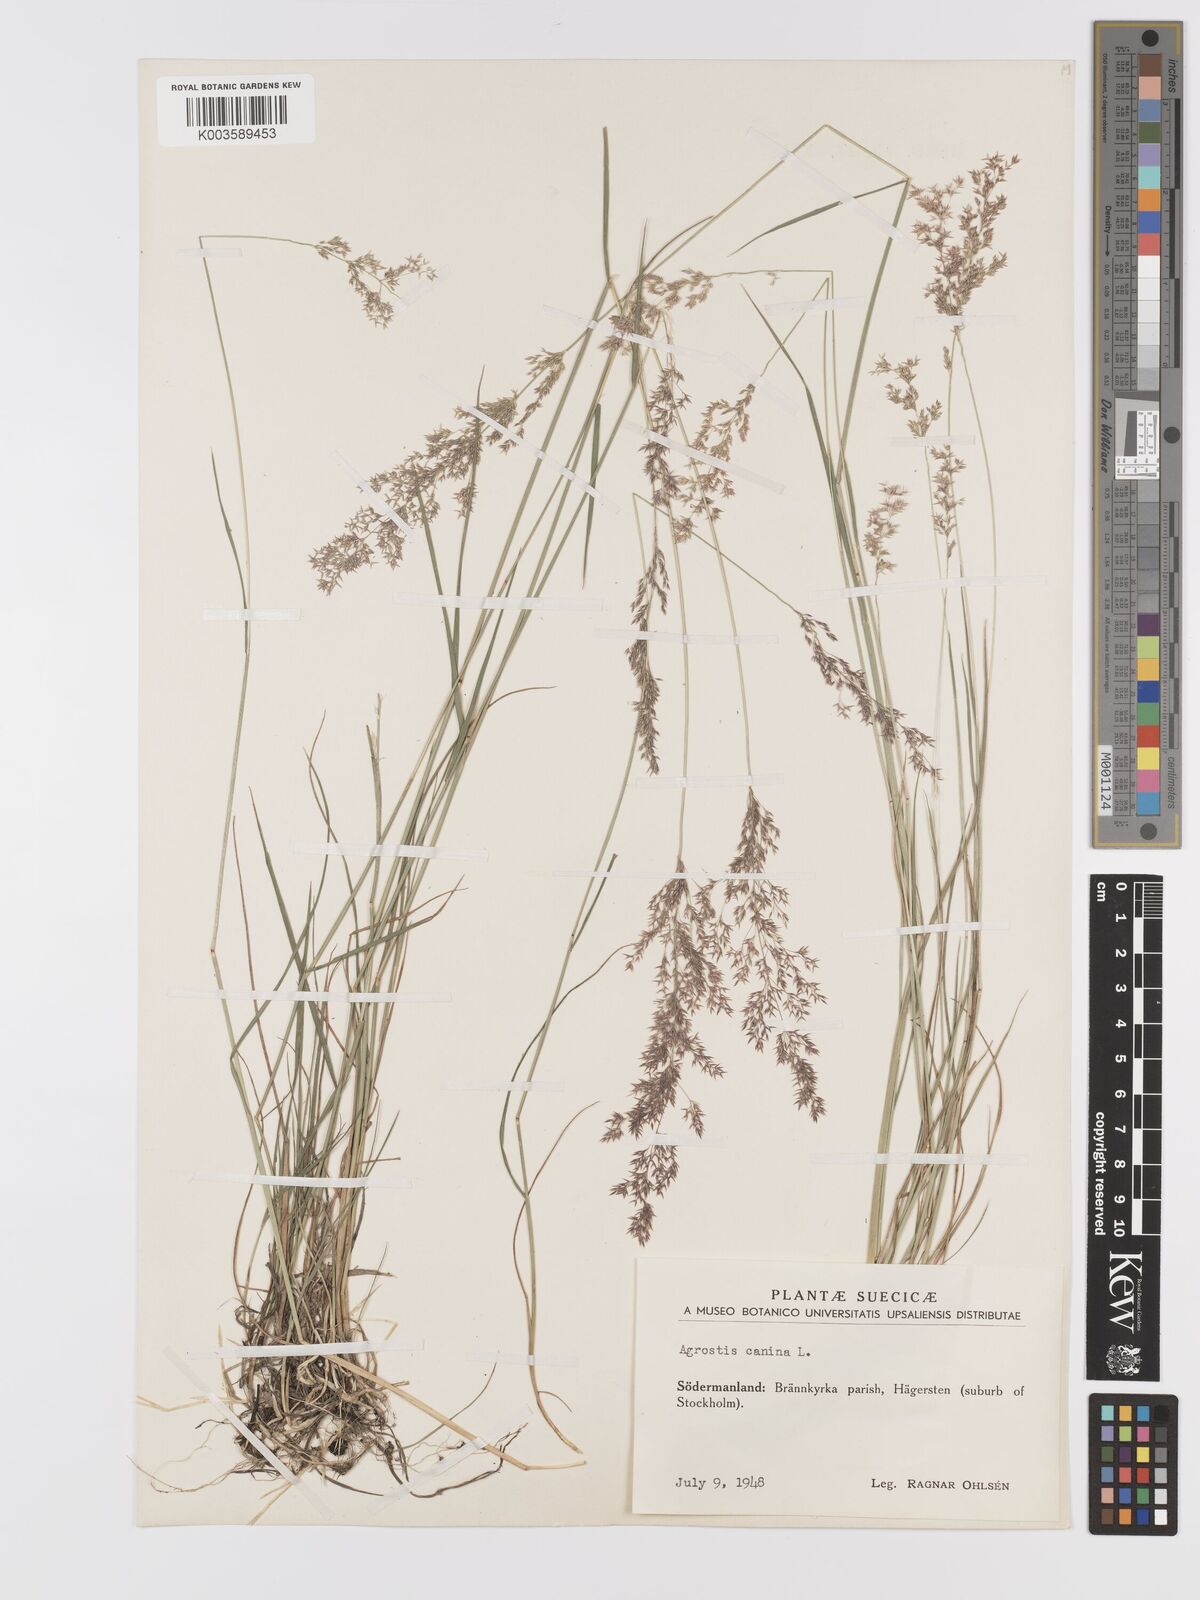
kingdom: Plantae
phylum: Tracheophyta
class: Liliopsida
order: Poales
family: Poaceae
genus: Agrostis
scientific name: Agrostis canina
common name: Velvet bent
